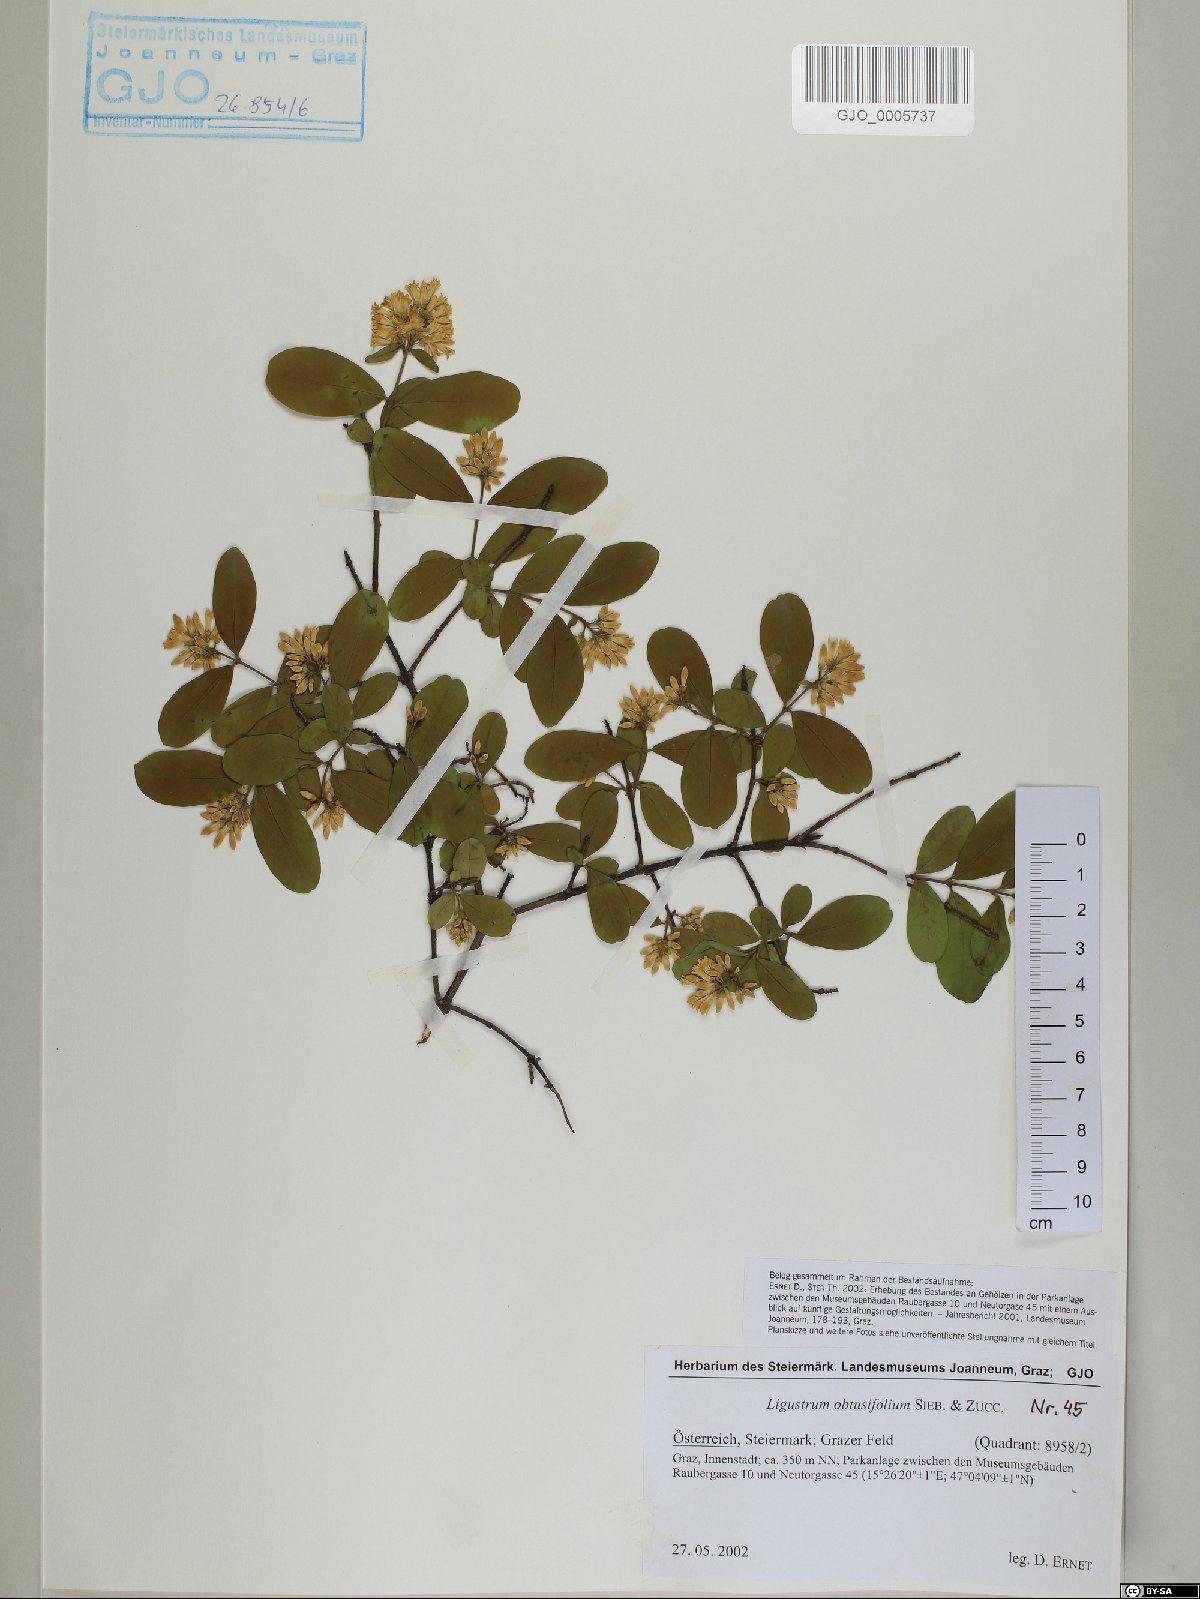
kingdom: Plantae
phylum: Tracheophyta
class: Magnoliopsida
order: Lamiales
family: Oleaceae
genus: Ligustrum
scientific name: Ligustrum obtusifolium
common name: Border privet
